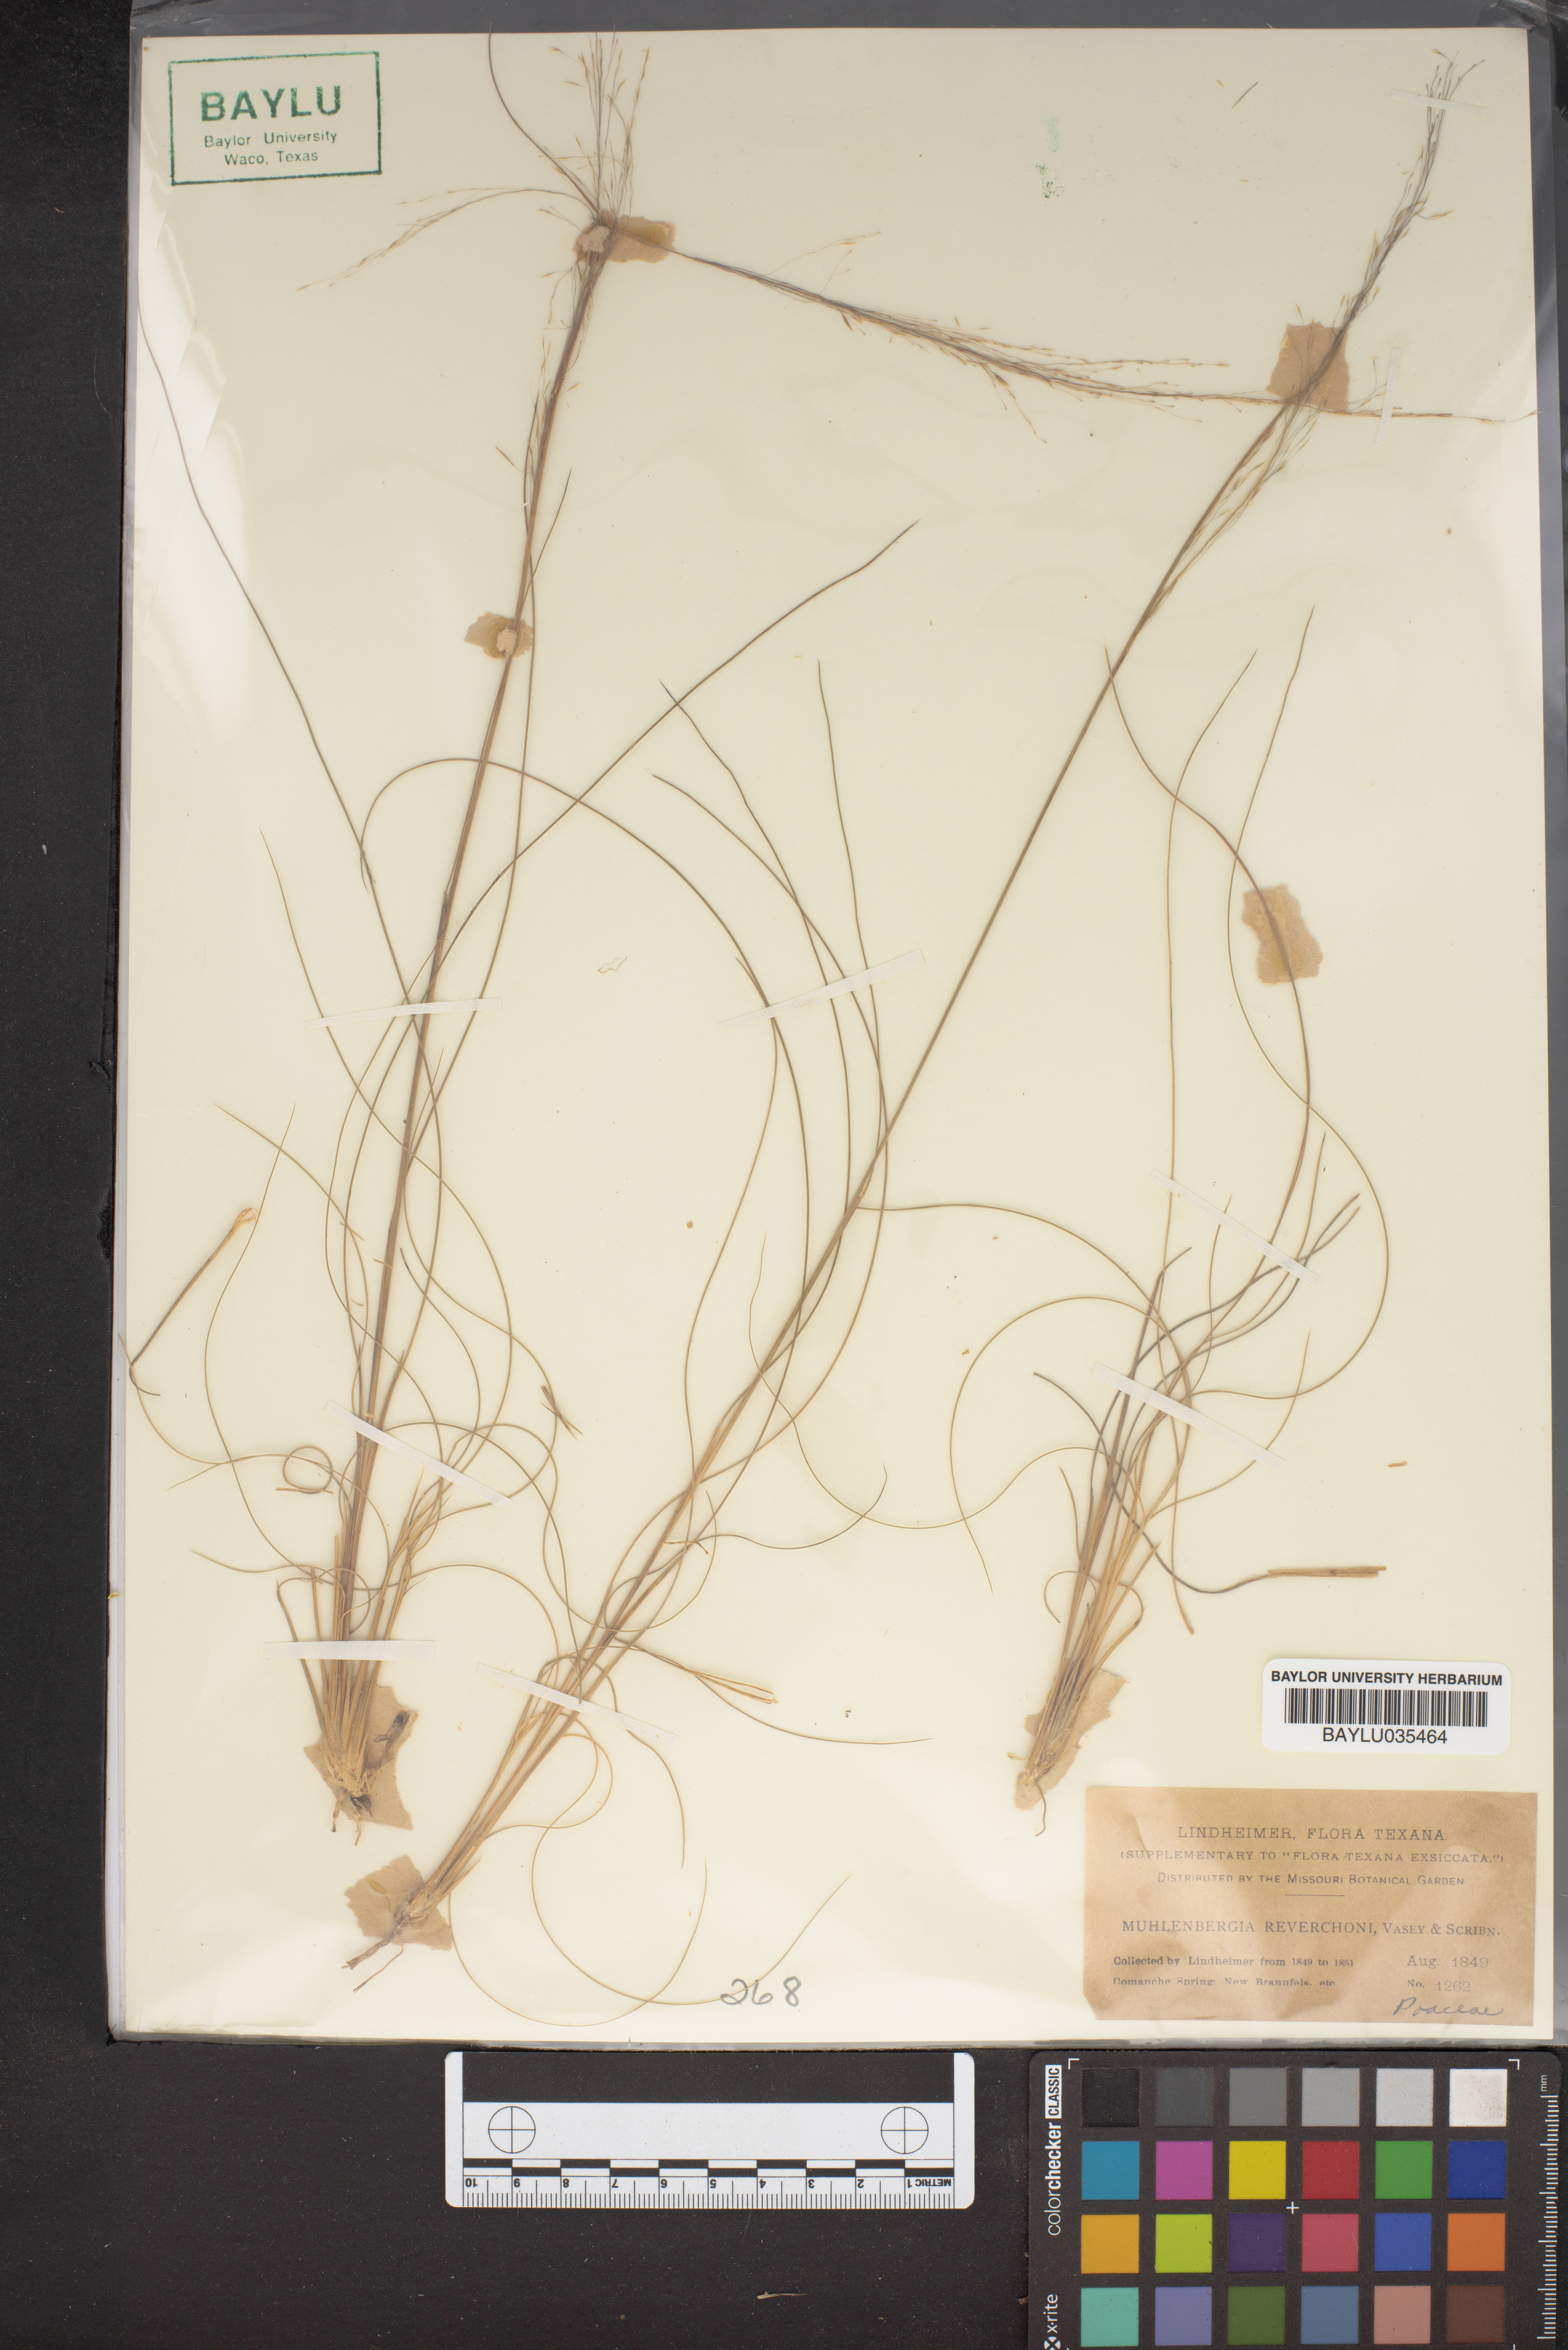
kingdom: Plantae
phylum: Tracheophyta
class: Liliopsida
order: Poales
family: Poaceae
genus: Muhlenbergia
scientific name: Muhlenbergia reverchonii
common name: Seep muhly
